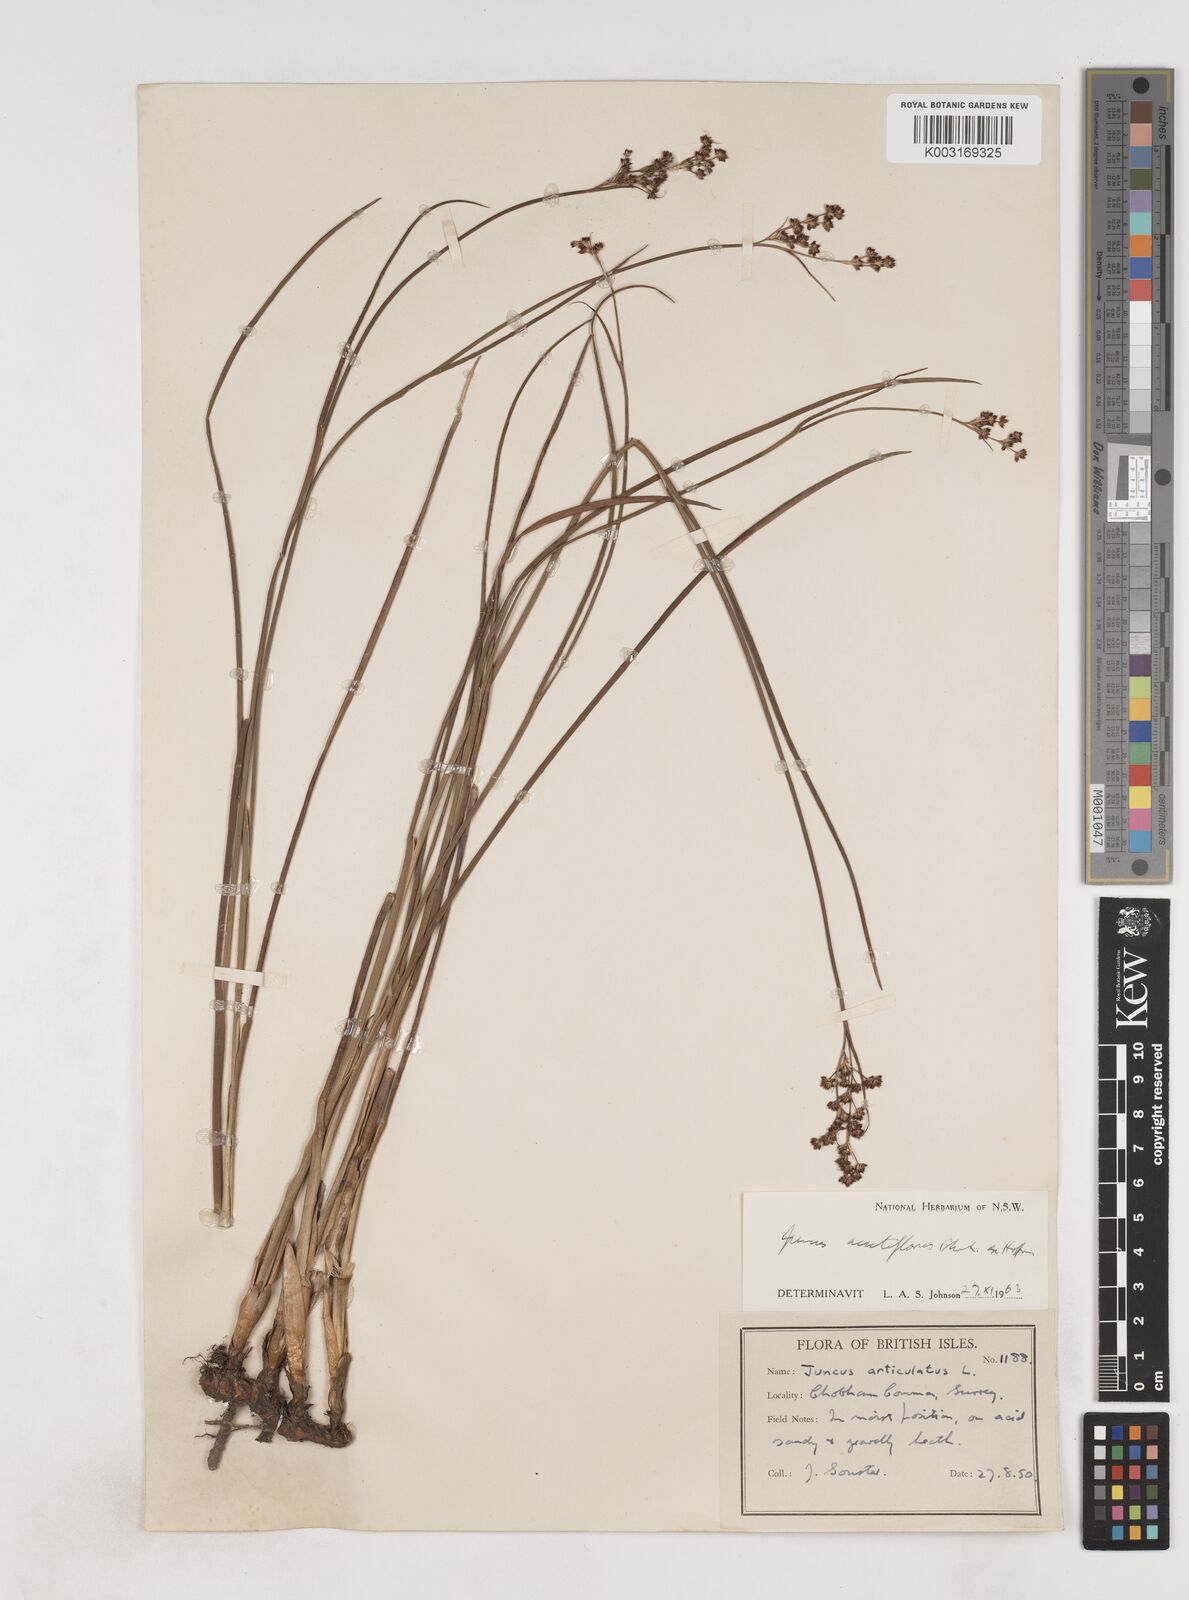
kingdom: Plantae
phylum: Tracheophyta
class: Liliopsida
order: Poales
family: Juncaceae
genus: Juncus
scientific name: Juncus acutiflorus
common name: Sharp-flowered rush
